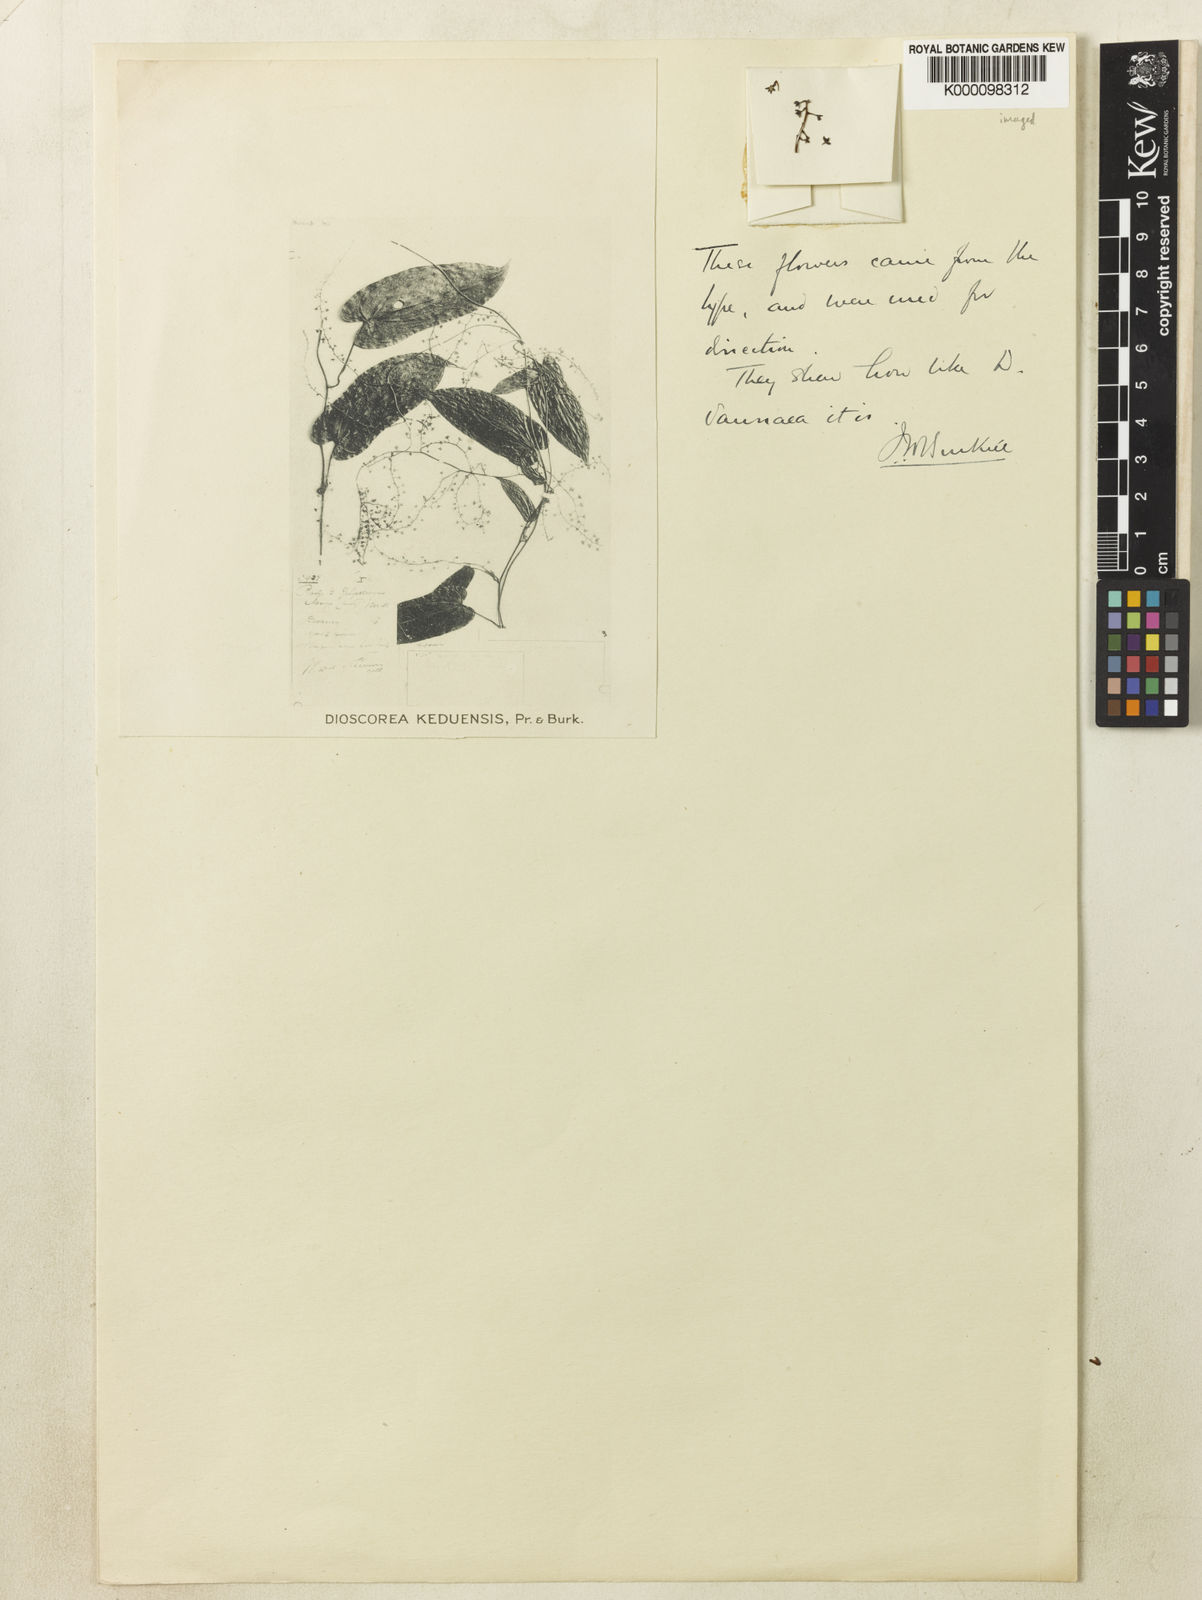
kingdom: Plantae
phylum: Tracheophyta
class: Liliopsida
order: Dioscoreales
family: Dioscoreaceae
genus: Dioscorea
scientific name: Dioscorea
